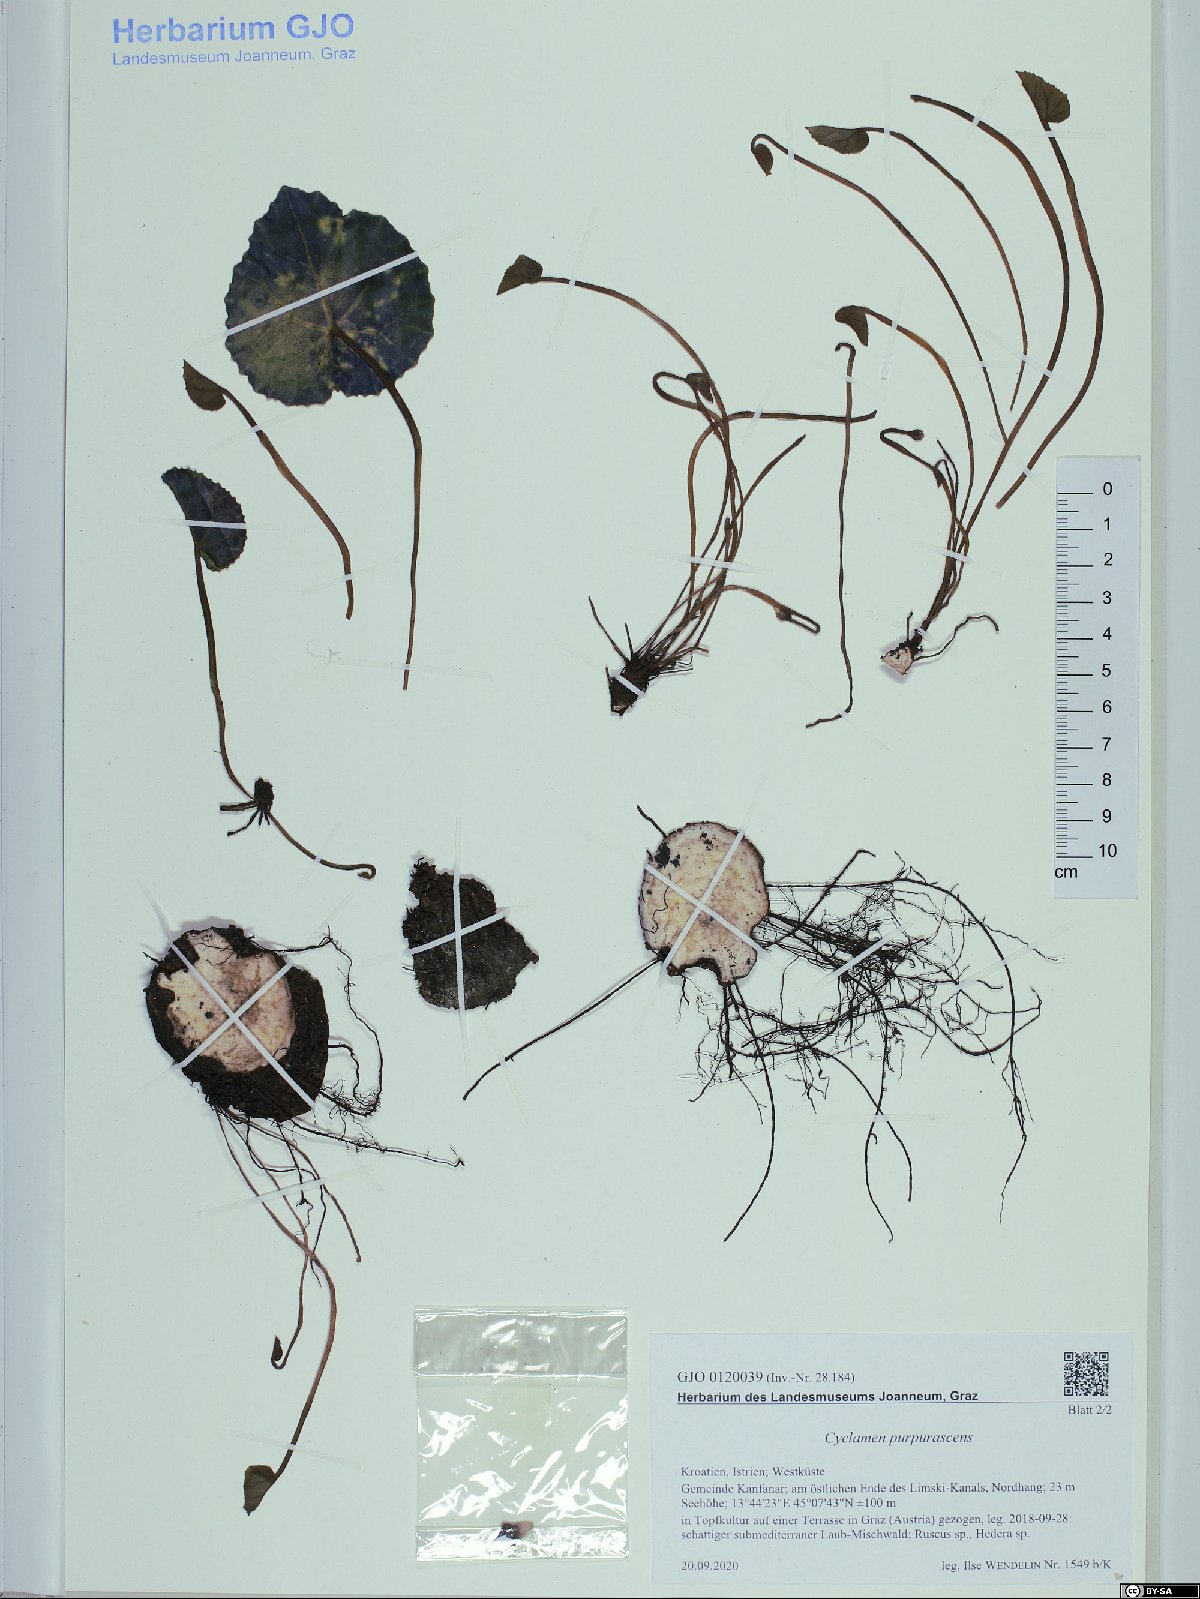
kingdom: Plantae
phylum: Tracheophyta
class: Magnoliopsida
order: Ericales
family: Primulaceae
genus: Cyclamen
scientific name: Cyclamen purpurascens
